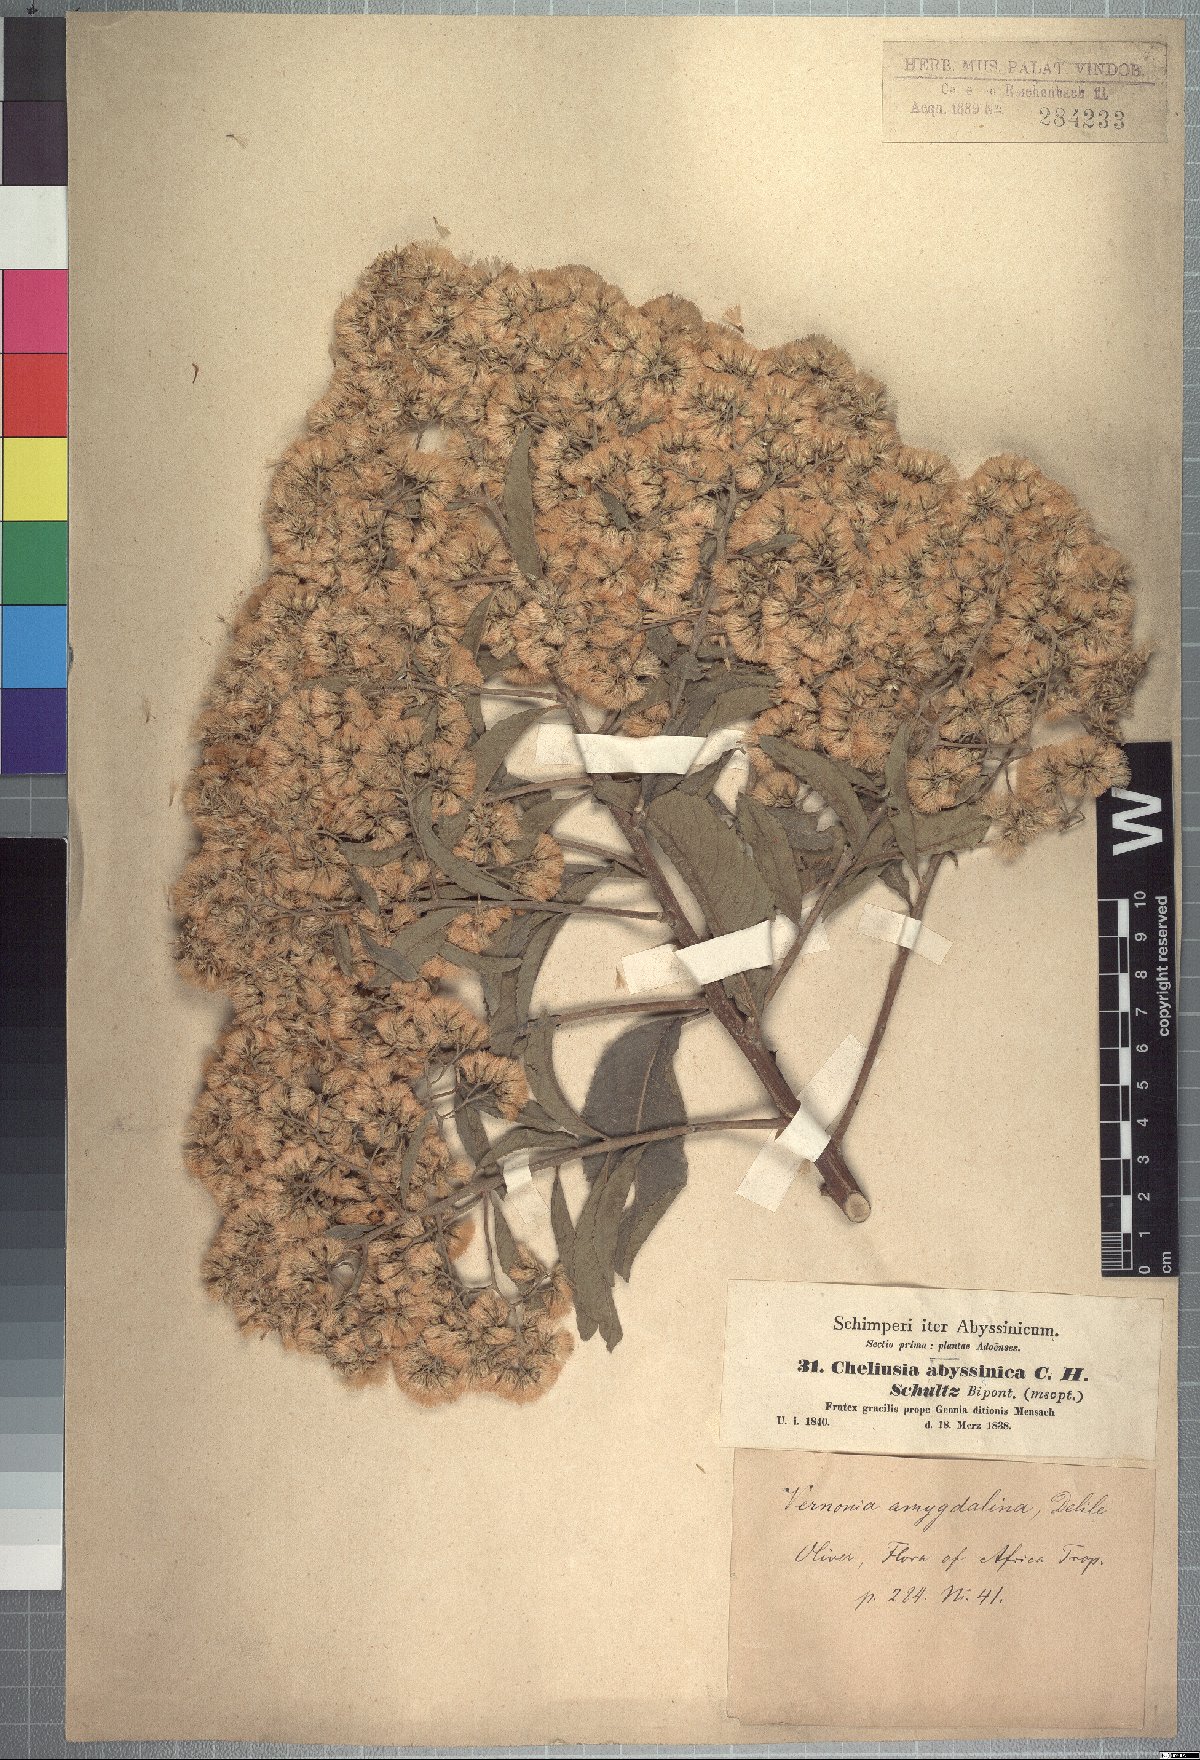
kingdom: Plantae
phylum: Tracheophyta
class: Magnoliopsida
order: Asterales
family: Asteraceae
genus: Gymnanthemum
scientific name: Gymnanthemum amygdalinum
